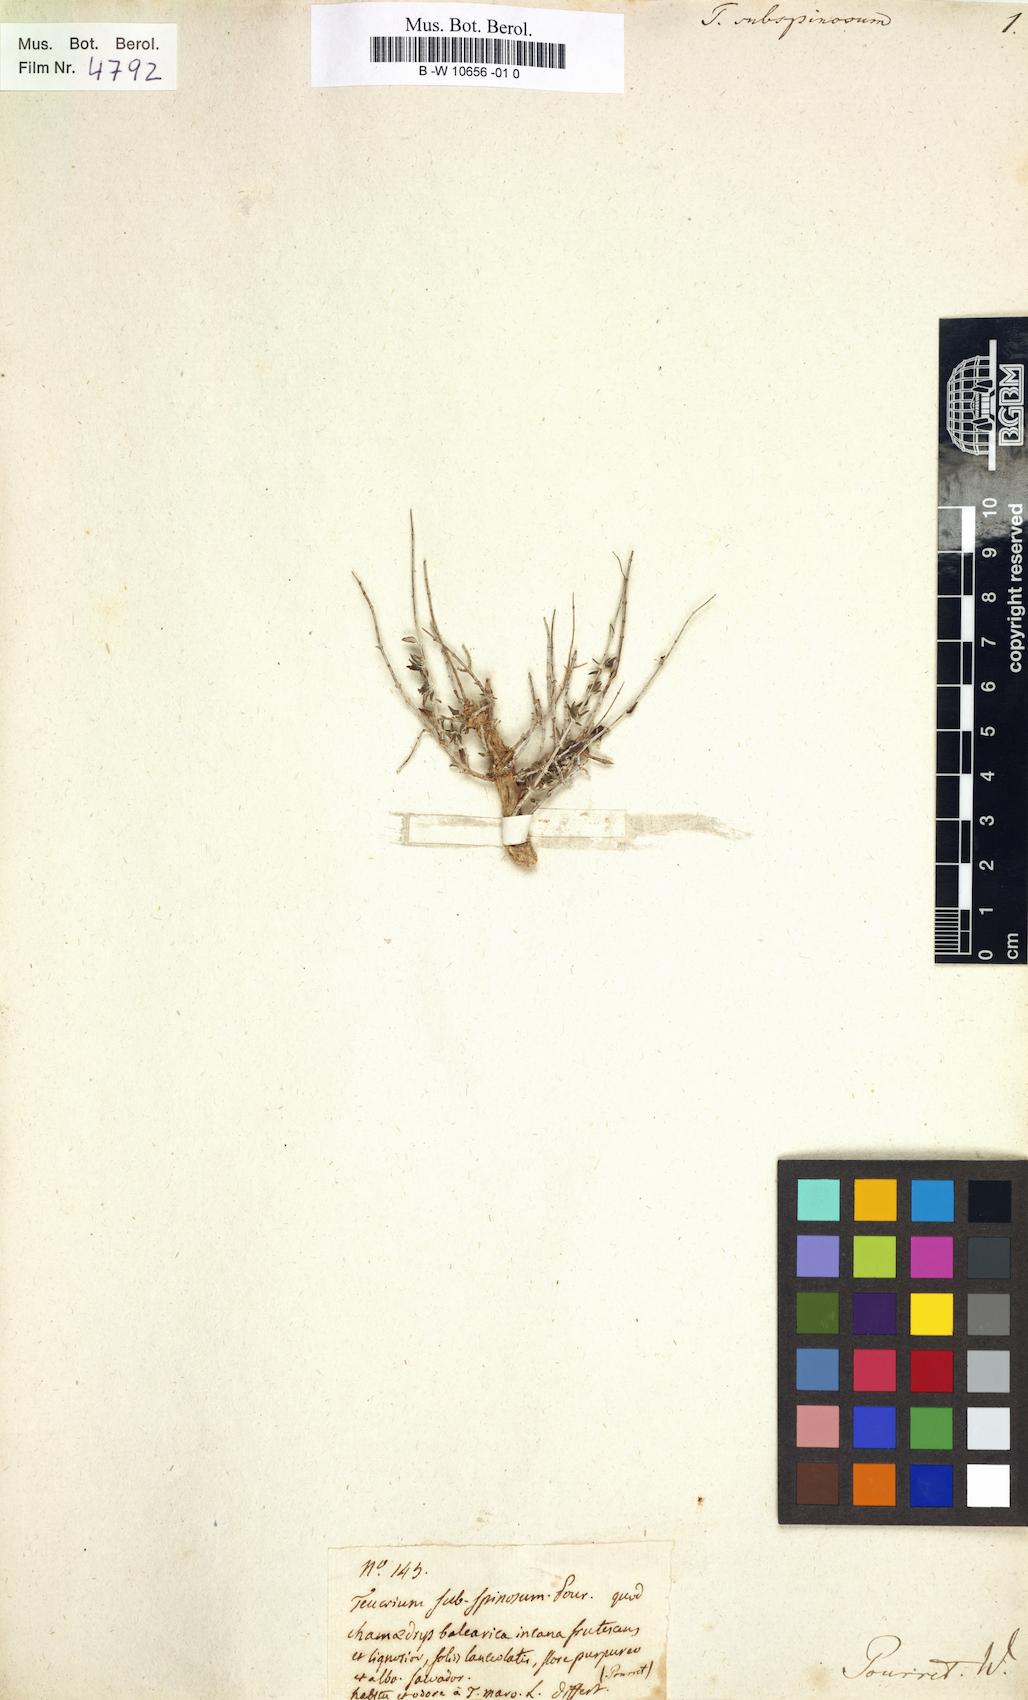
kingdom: Plantae
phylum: Tracheophyta
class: Magnoliopsida
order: Lamiales
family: Lamiaceae
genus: Teucrium
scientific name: Teucrium subspinosum
